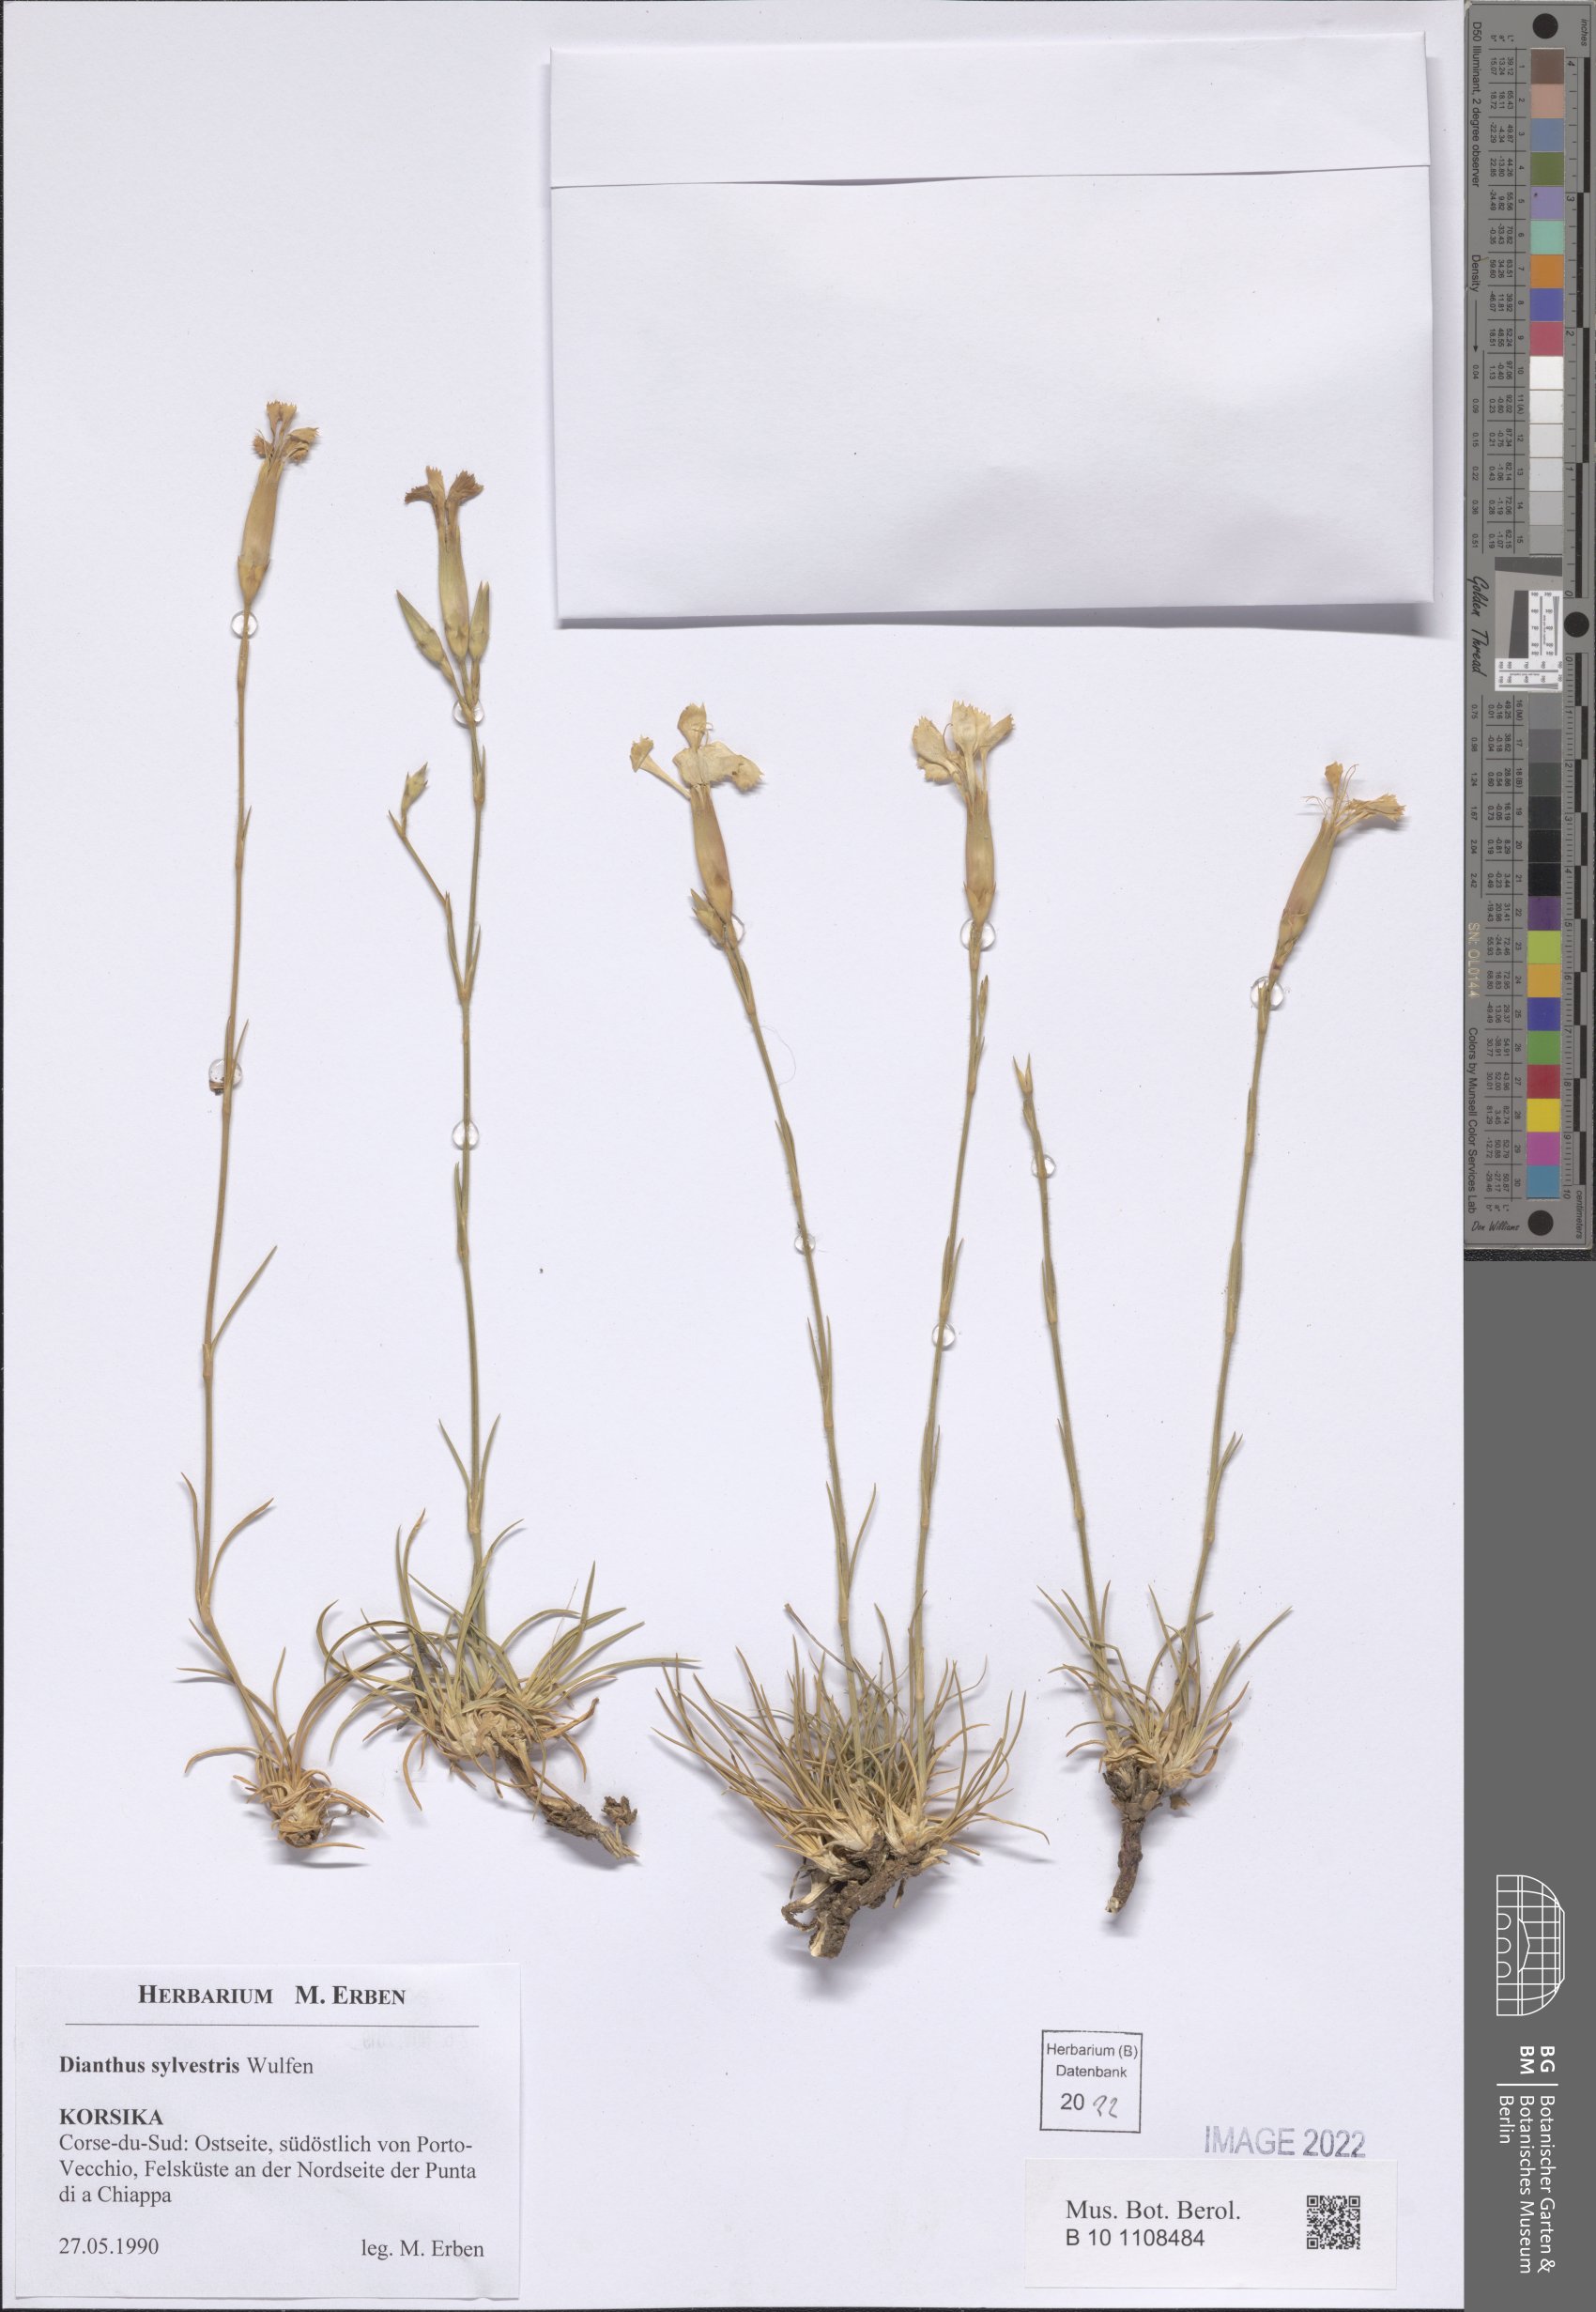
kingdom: Plantae
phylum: Tracheophyta
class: Magnoliopsida
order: Caryophyllales
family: Caryophyllaceae
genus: Dianthus
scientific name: Dianthus sylvestris
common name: Wood pink
